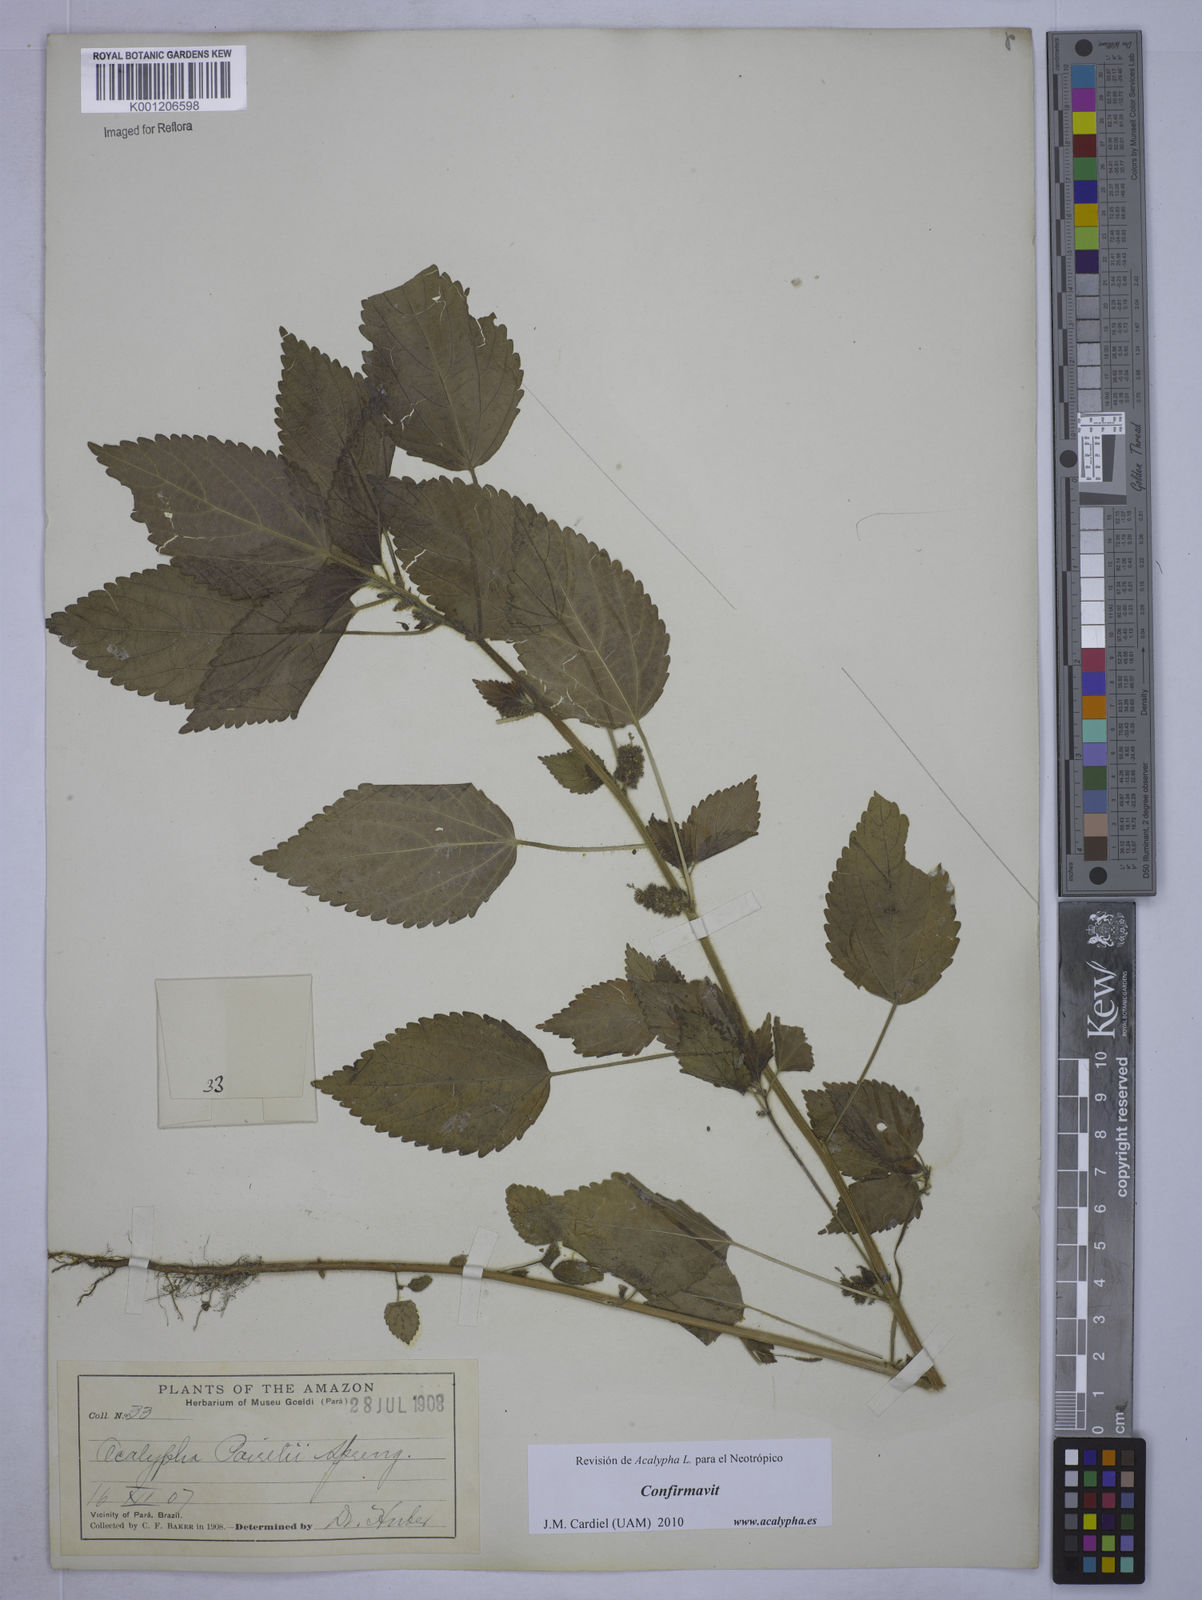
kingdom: Plantae
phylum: Tracheophyta
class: Magnoliopsida
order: Malpighiales
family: Euphorbiaceae
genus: Acalypha
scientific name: Acalypha poiretii
